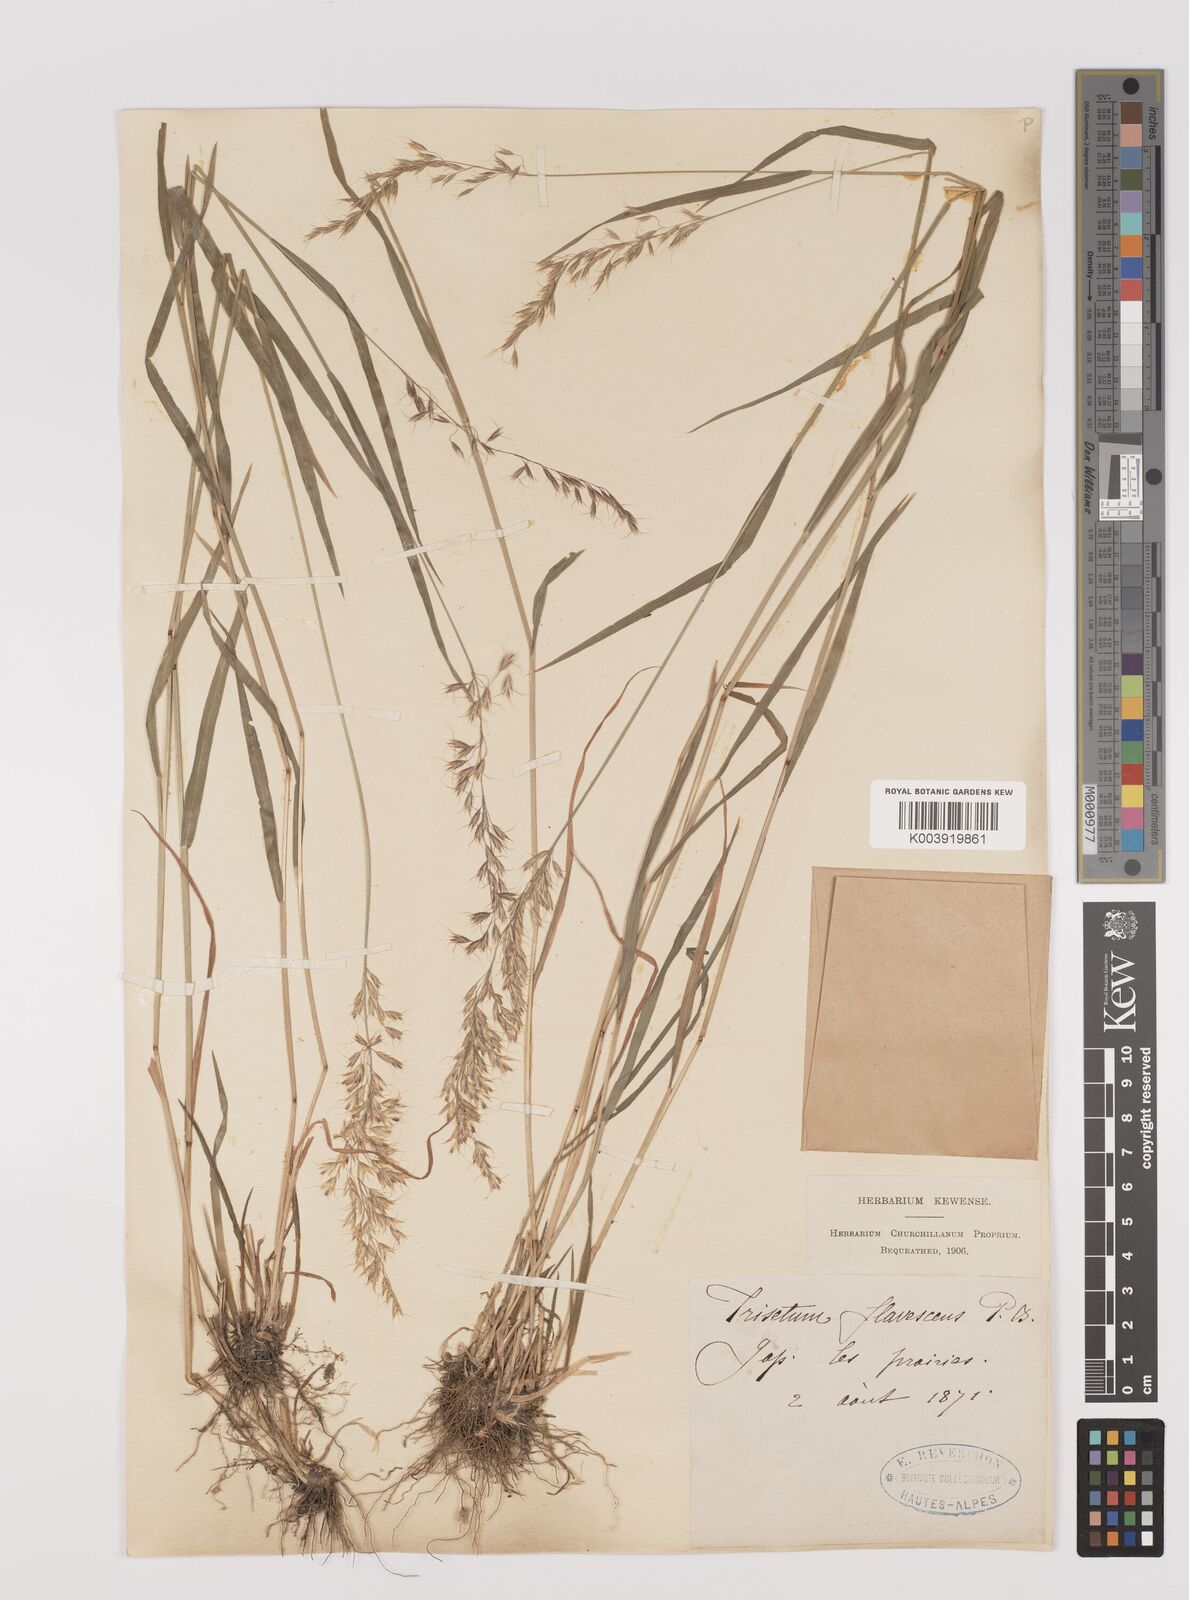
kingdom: Plantae
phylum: Tracheophyta
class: Liliopsida
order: Poales
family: Poaceae
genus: Trisetum
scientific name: Trisetum flavescens
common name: Yellow oat-grass
